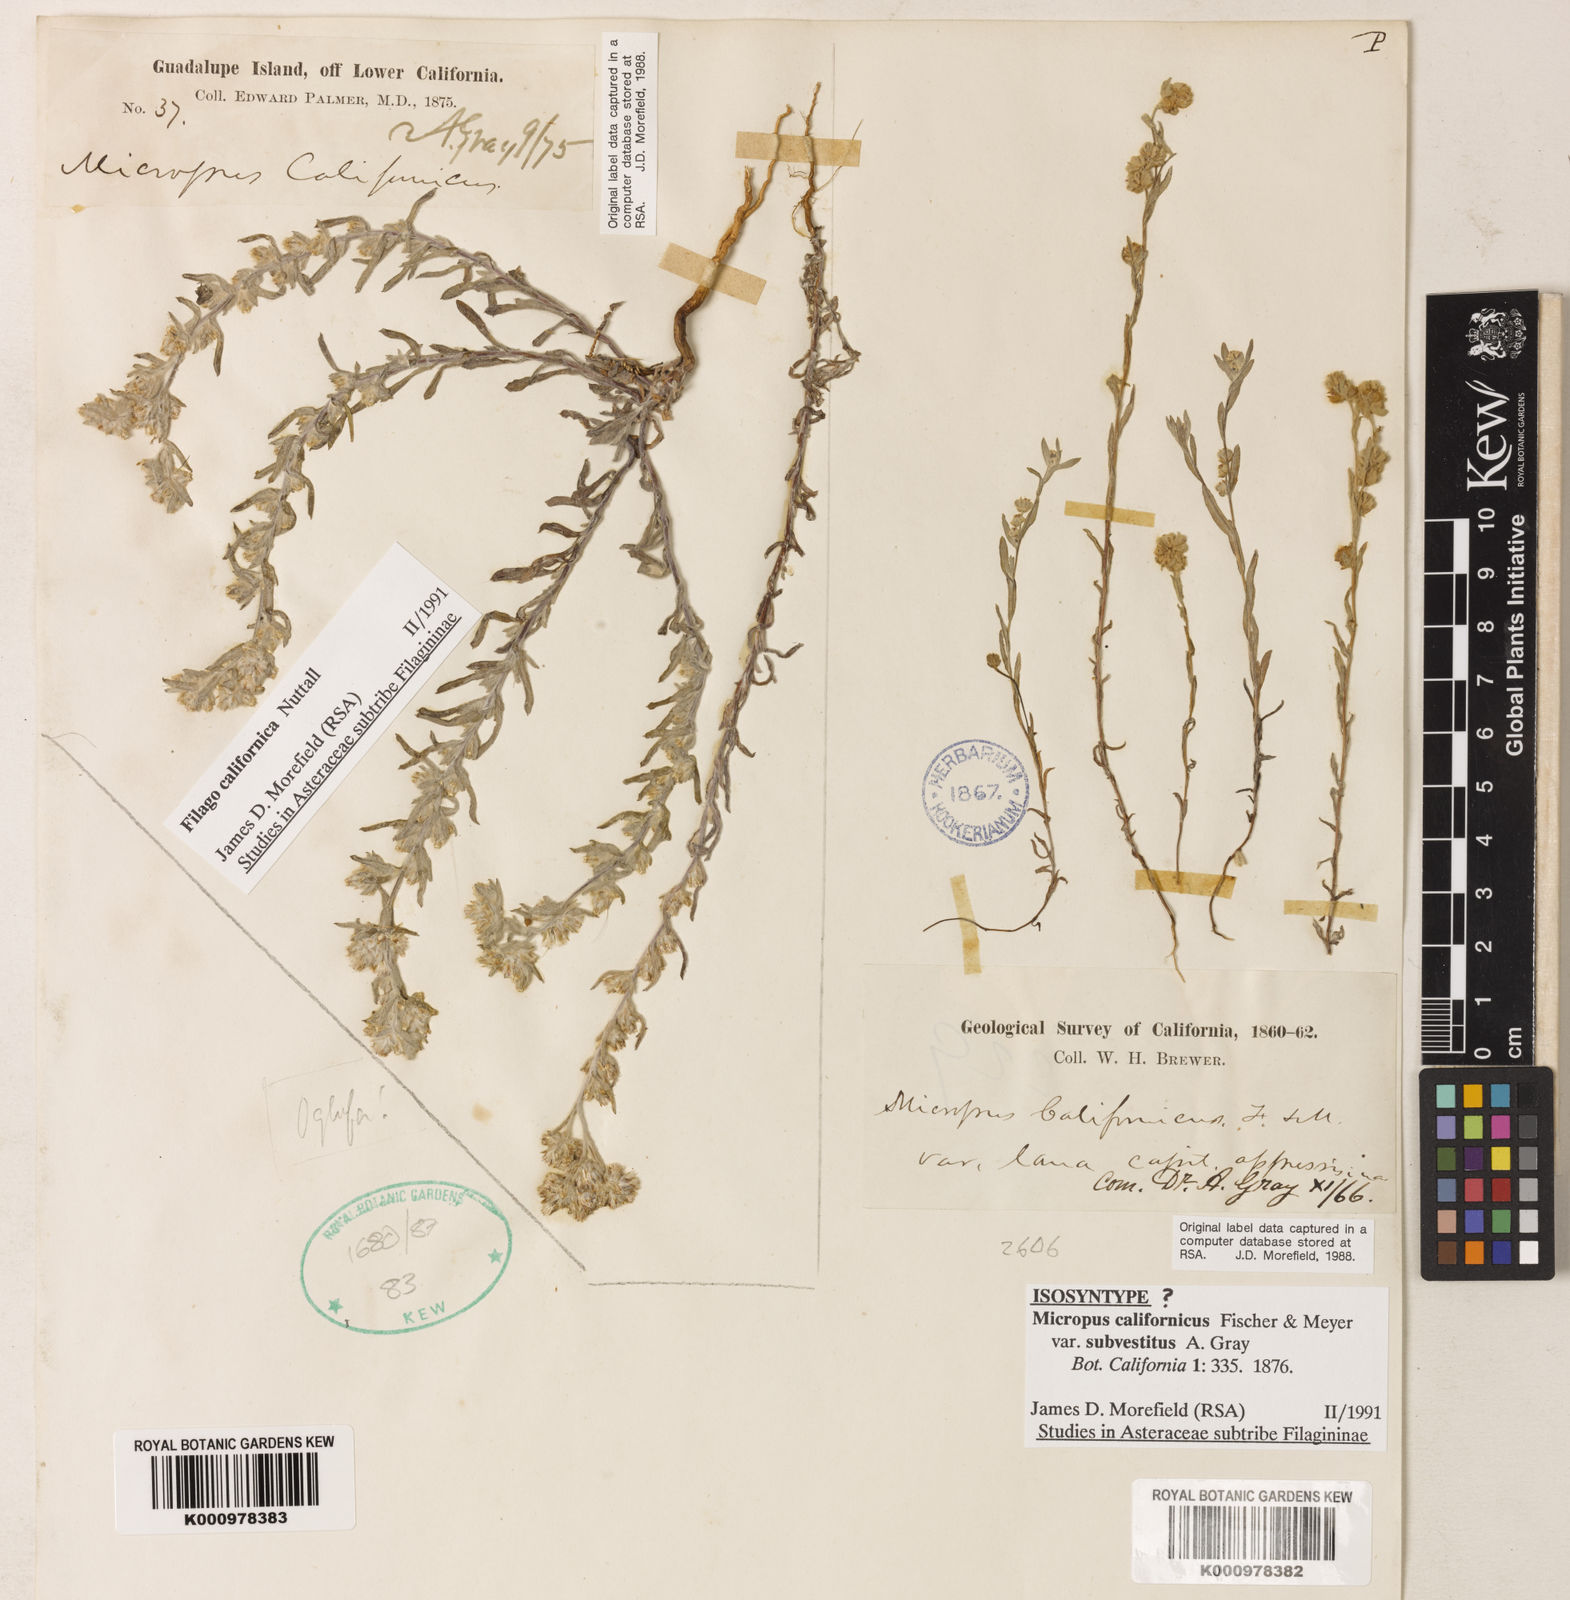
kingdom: Plantae
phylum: Tracheophyta
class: Magnoliopsida
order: Asterales
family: Asteraceae
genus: Bombycilaena
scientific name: Bombycilaena californica
